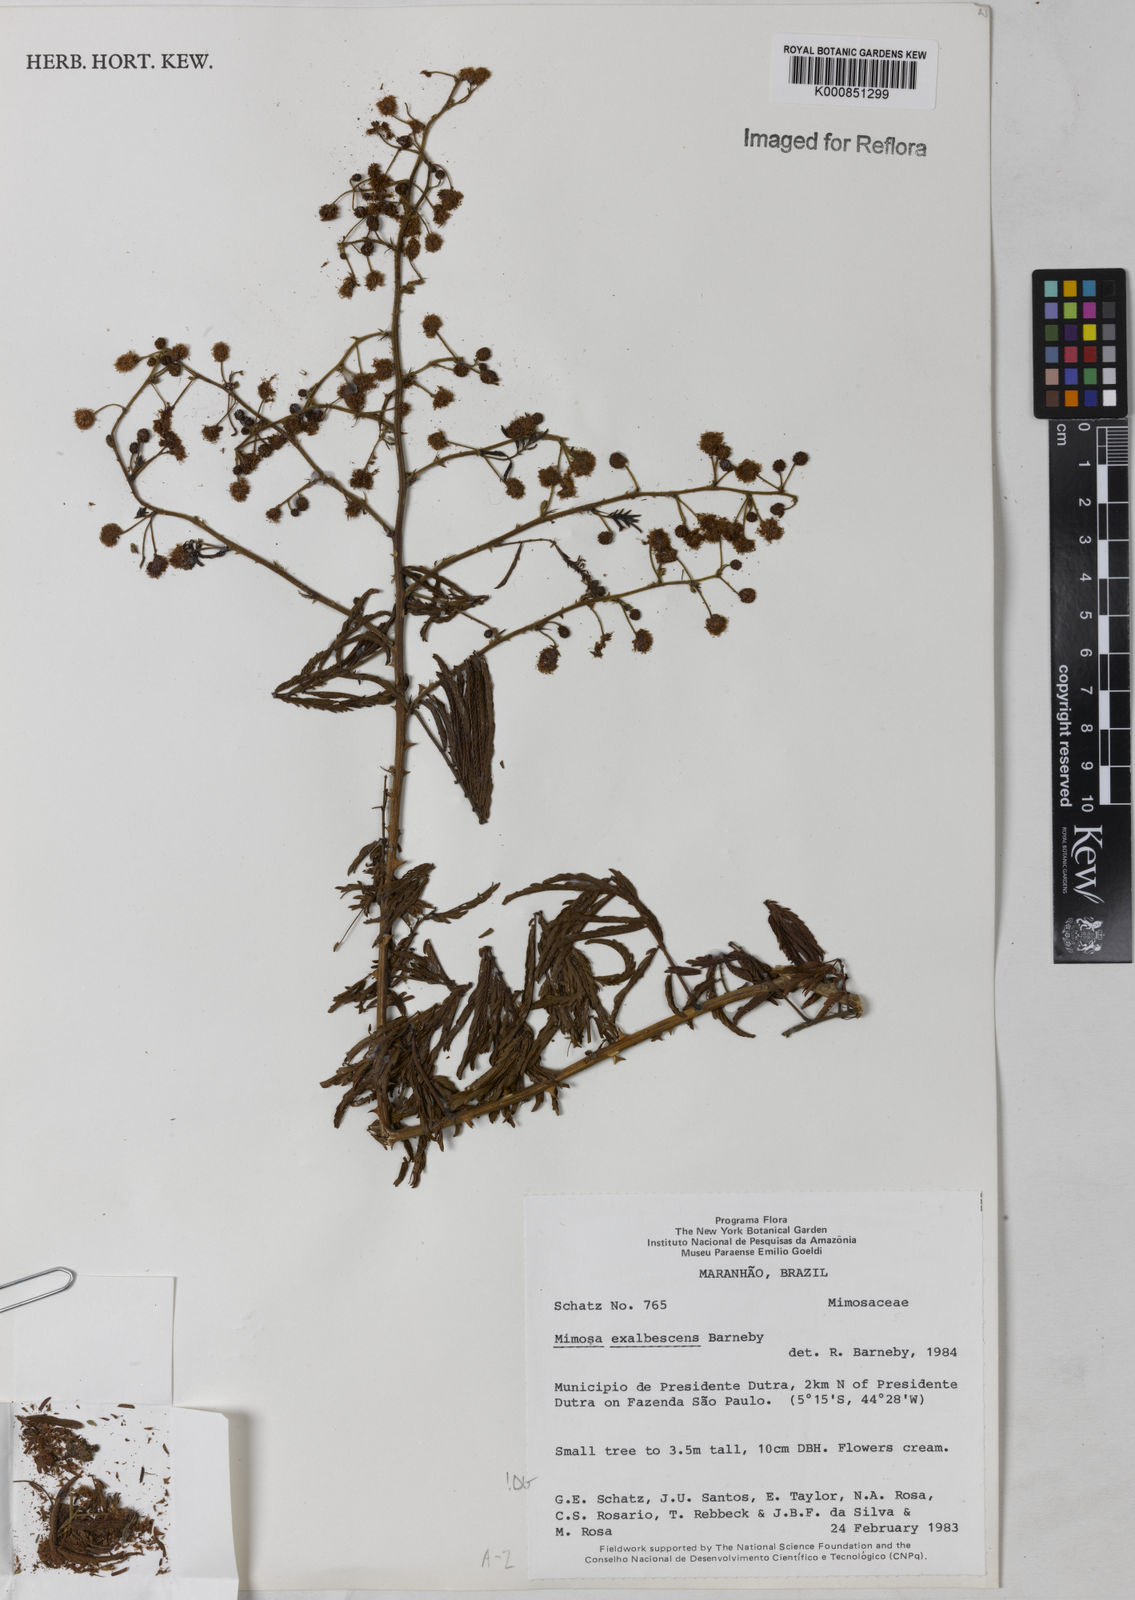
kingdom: Plantae
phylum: Tracheophyta
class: Magnoliopsida
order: Fabales
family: Fabaceae
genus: Mimosa
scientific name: Mimosa exalbescens
